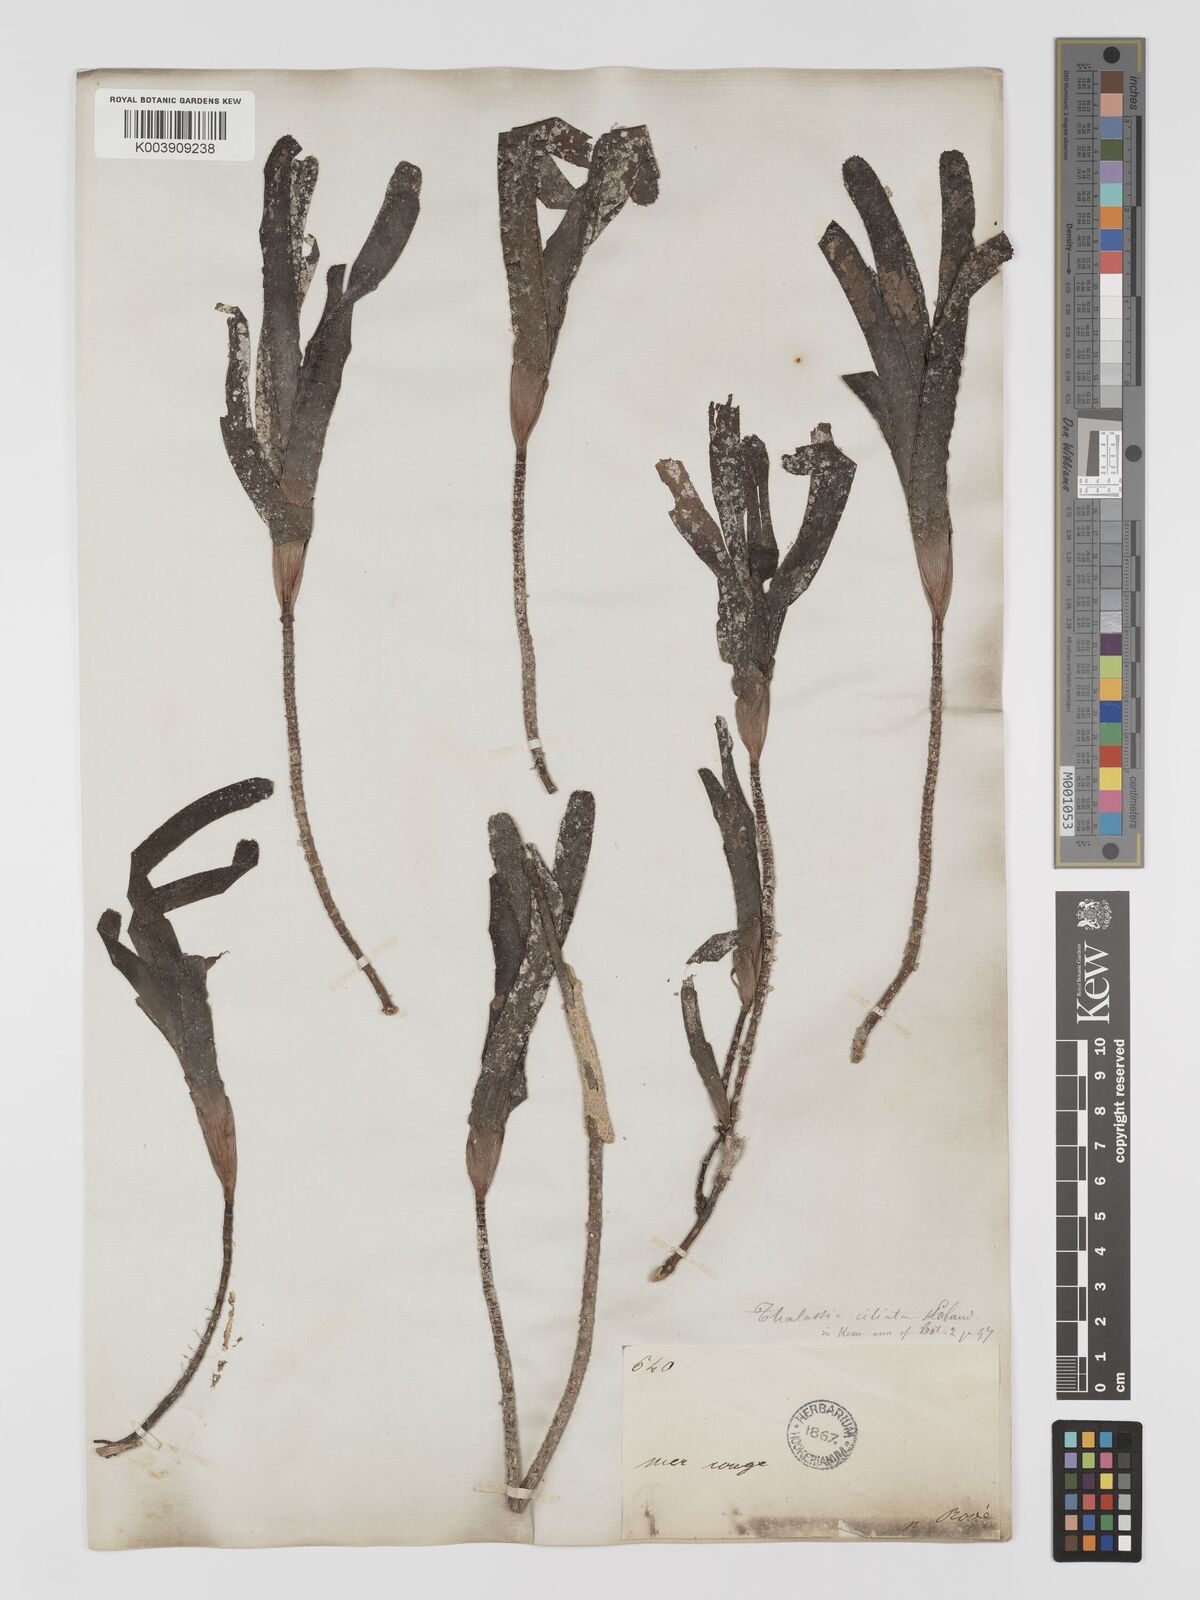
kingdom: Plantae
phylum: Tracheophyta
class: Liliopsida
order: Alismatales
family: Cymodoceaceae
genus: Thalassodendron
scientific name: Thalassodendron ciliatum
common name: Species code: tc
